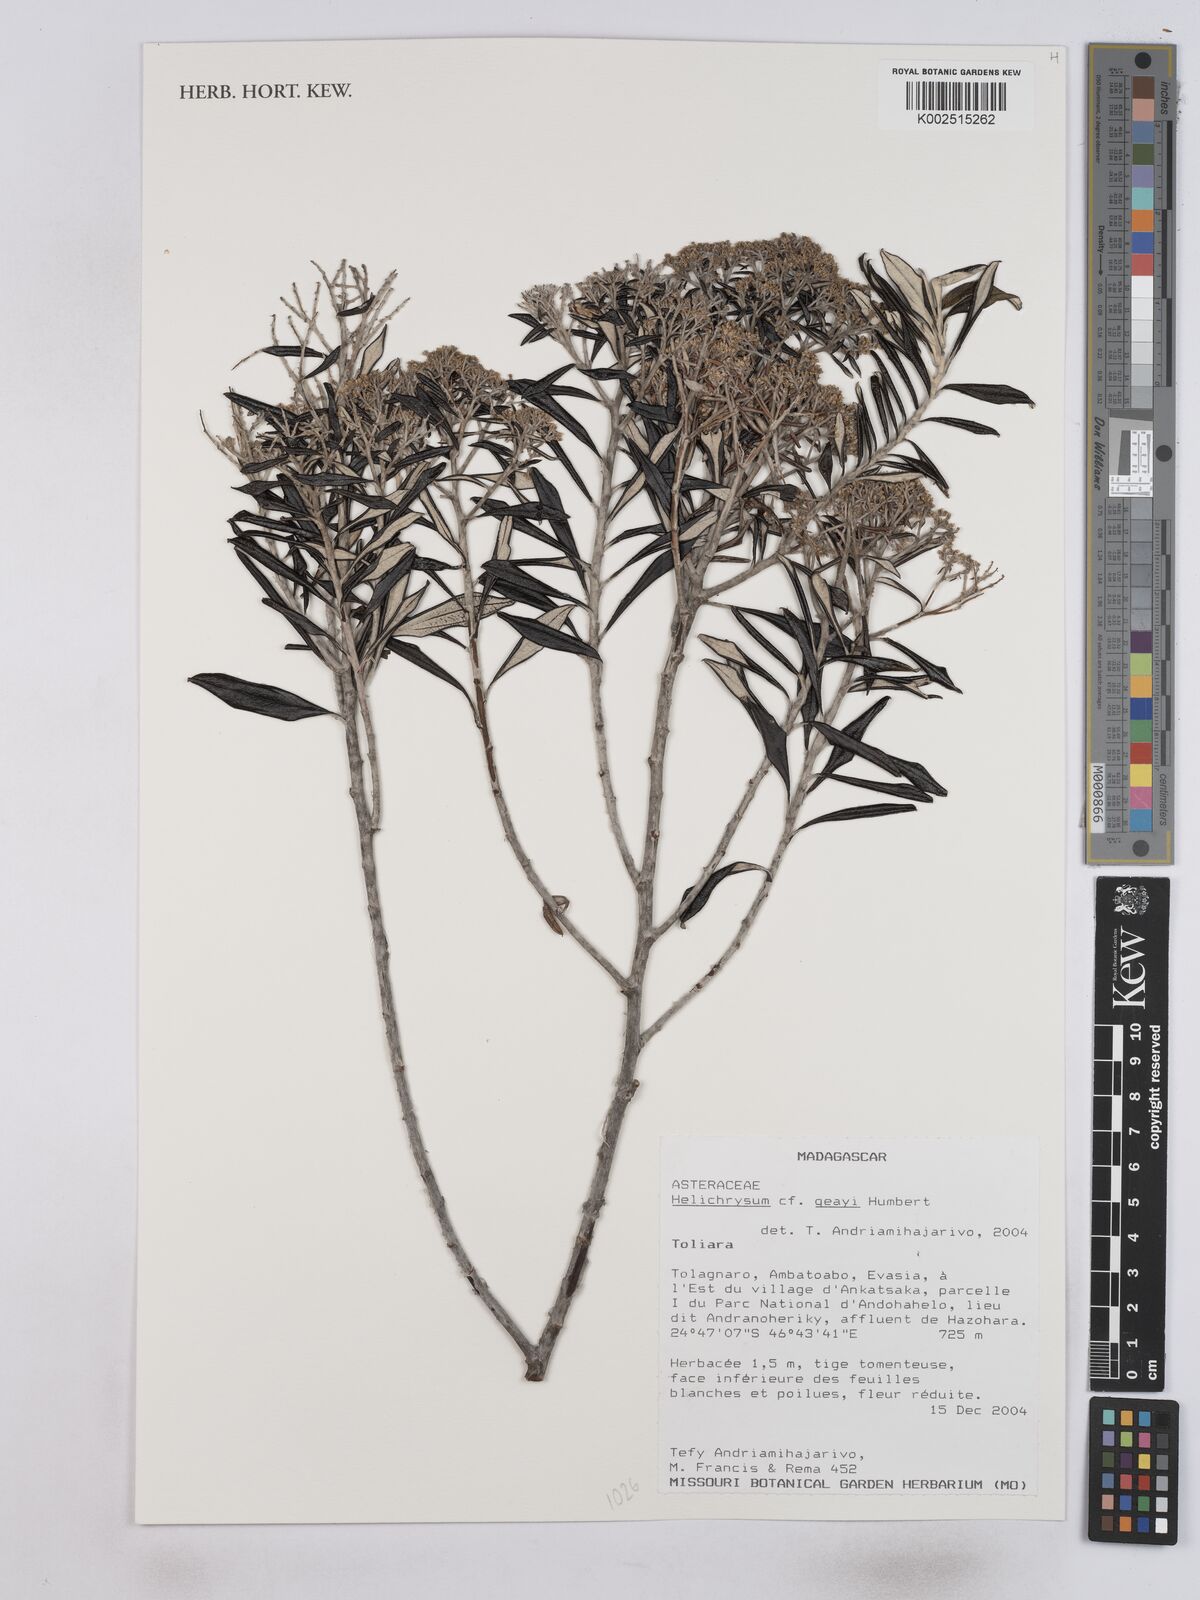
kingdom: Plantae
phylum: Tracheophyta
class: Magnoliopsida
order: Asterales
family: Asteraceae
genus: Helichrysum
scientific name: Helichrysum geayi
